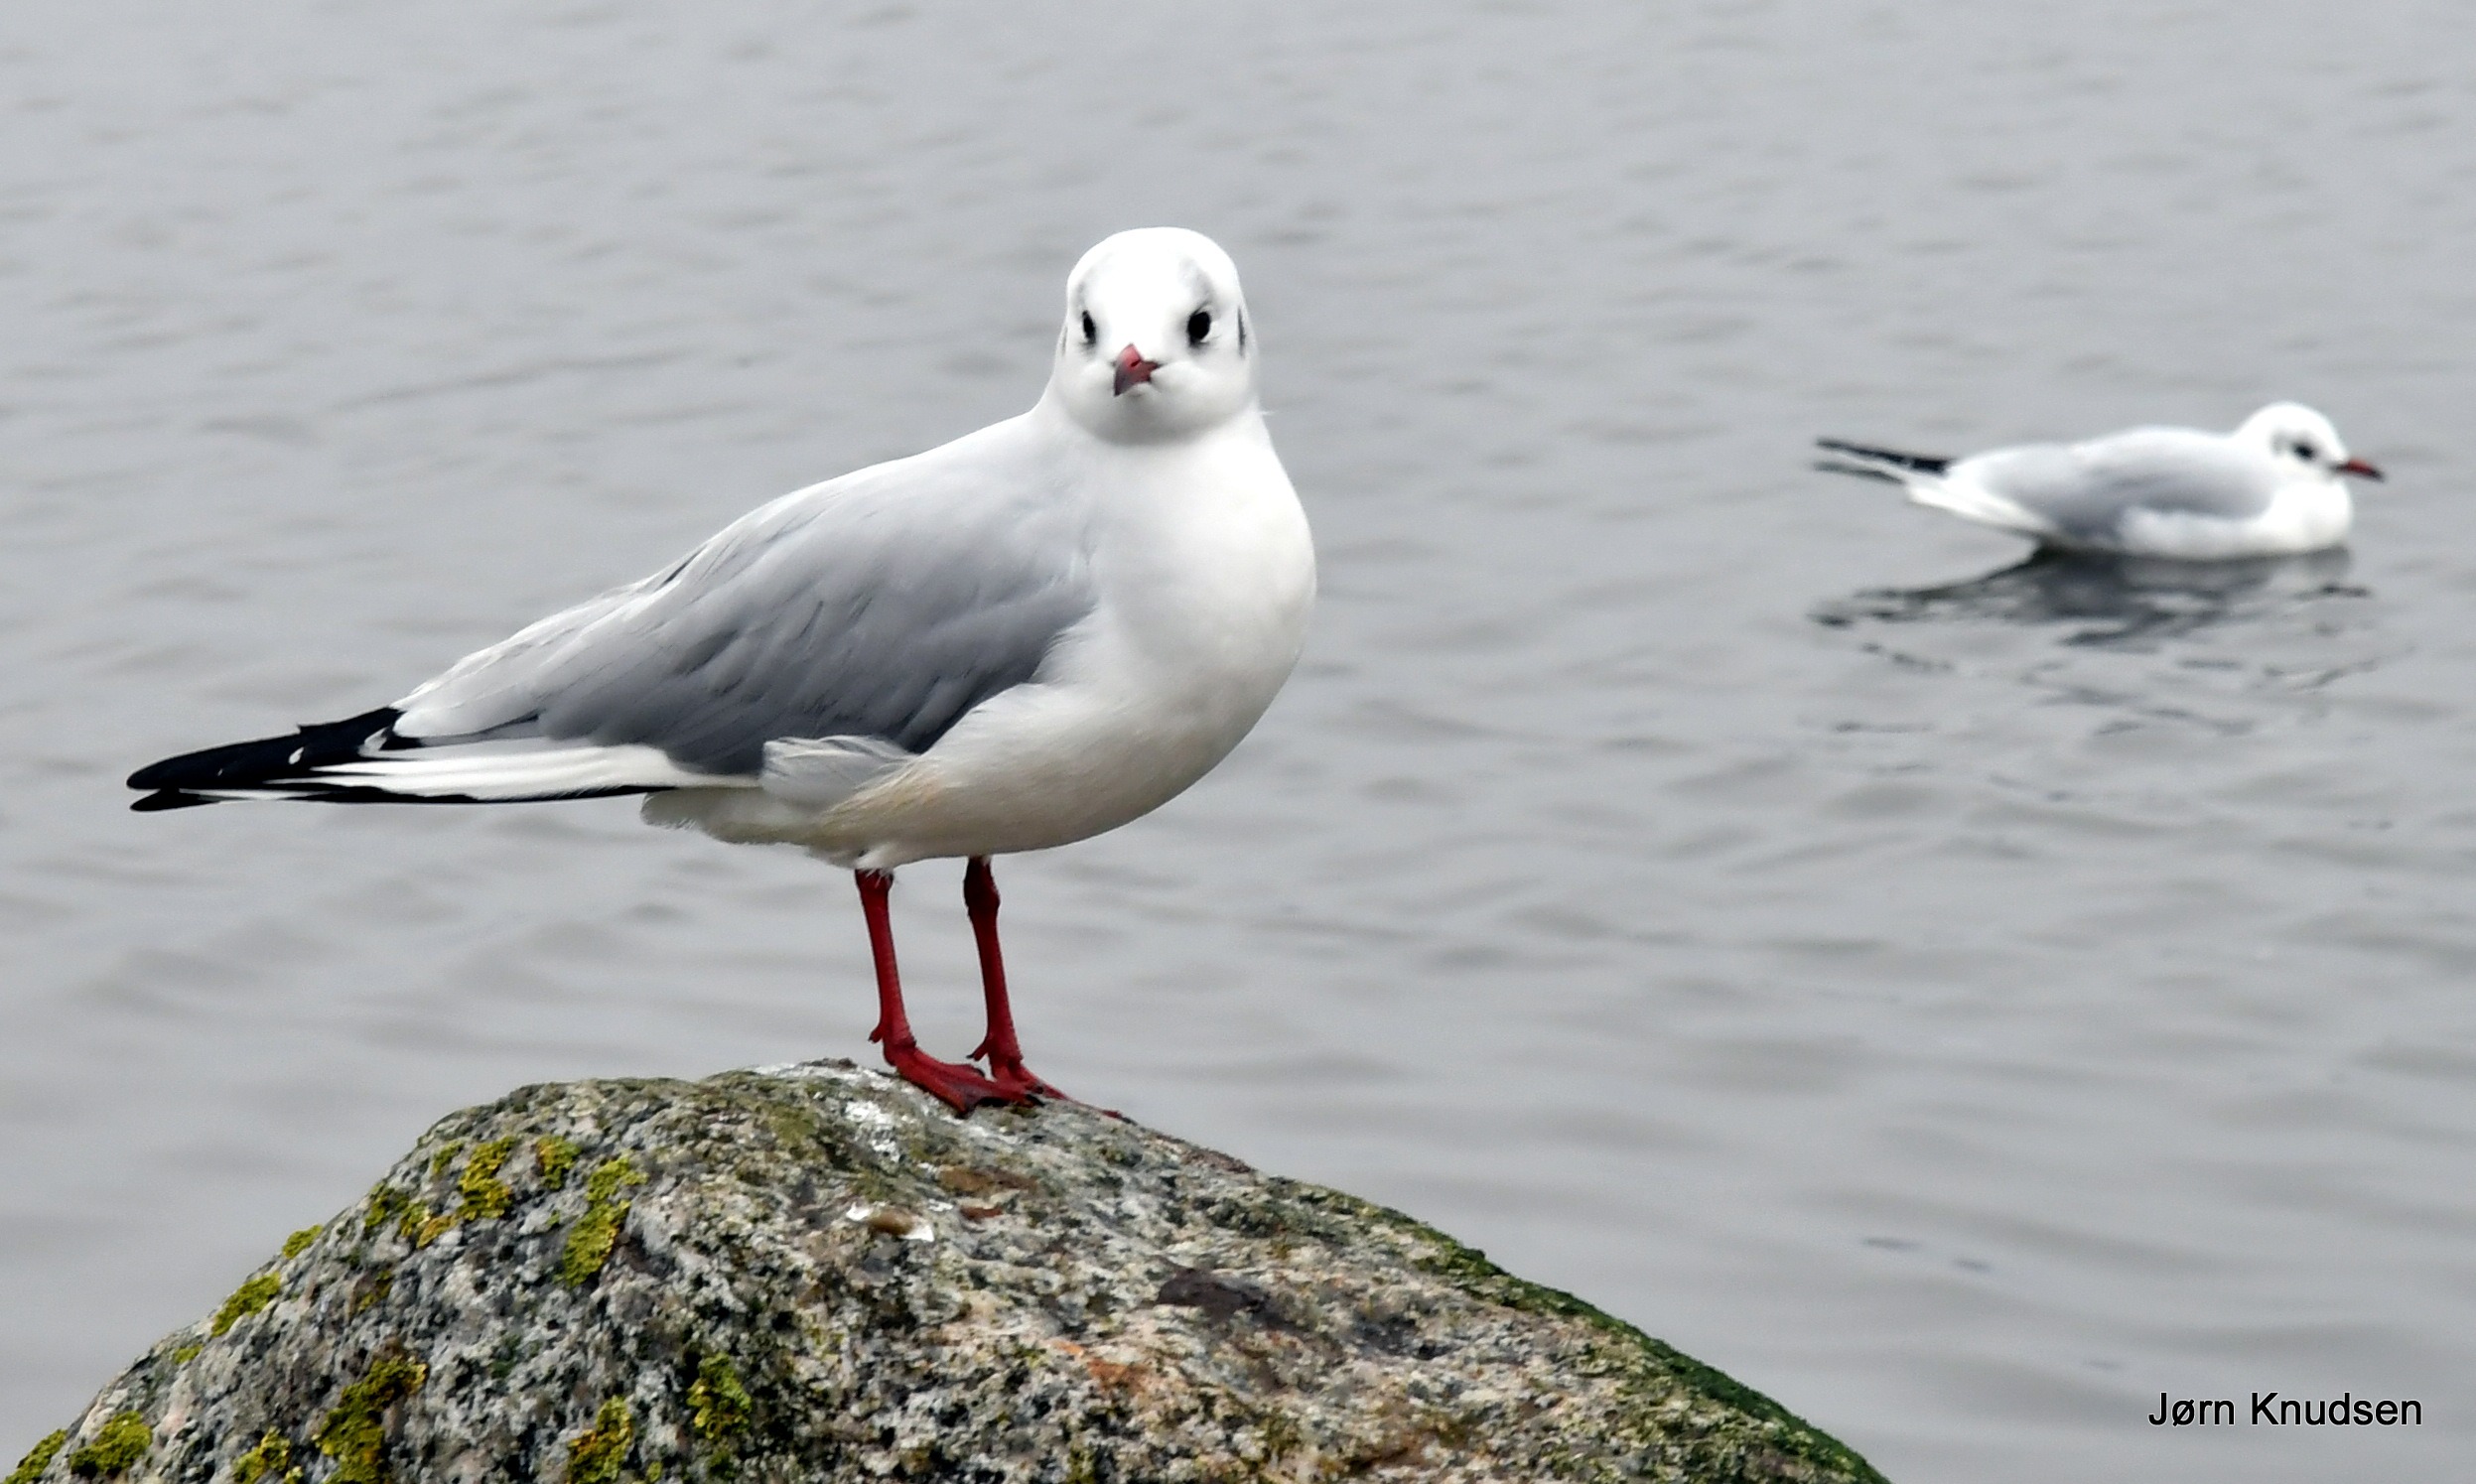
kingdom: Animalia
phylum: Chordata
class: Aves
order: Charadriiformes
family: Laridae
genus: Chroicocephalus
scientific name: Chroicocephalus ridibundus
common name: Hættemåge
